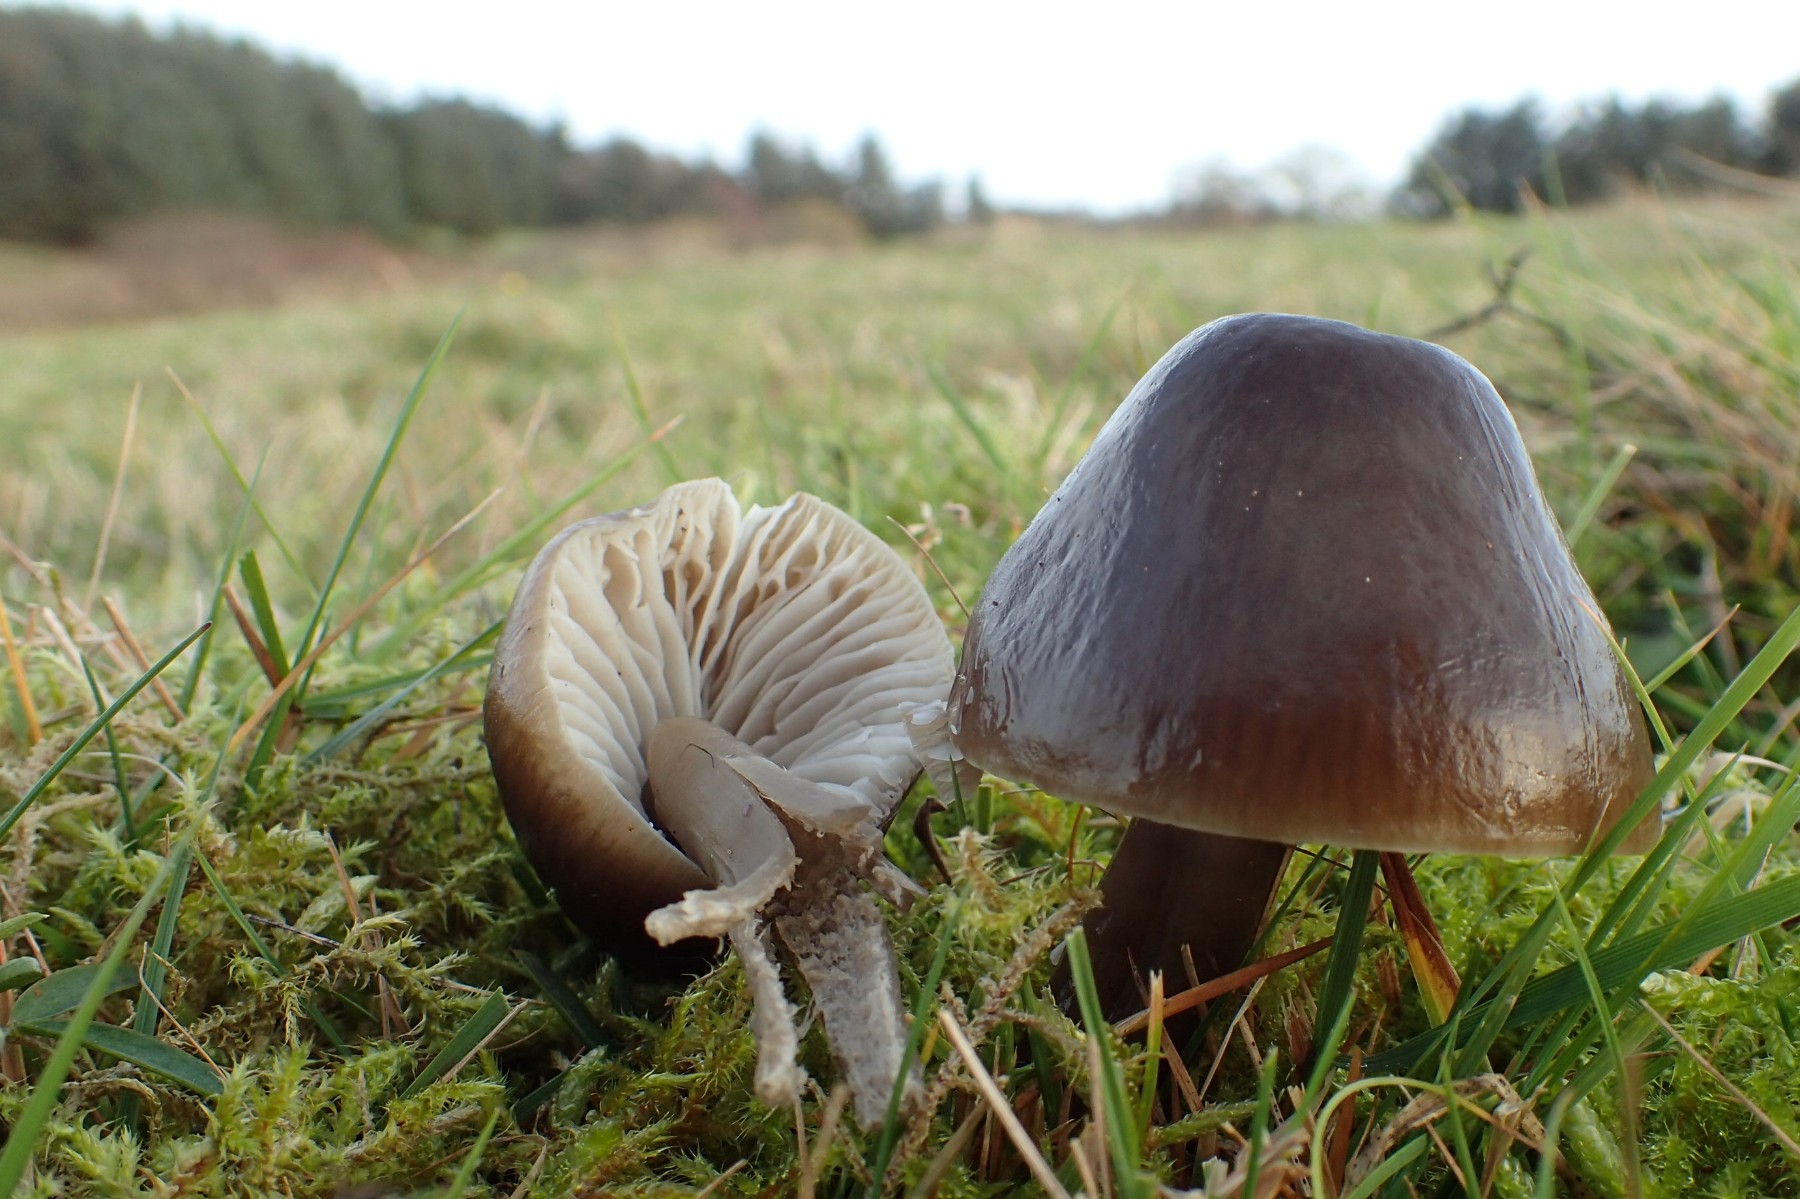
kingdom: Fungi
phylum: Basidiomycota
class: Agaricomycetes
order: Agaricales
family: Hygrophoraceae
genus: Gliophorus
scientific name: Gliophorus irrigatus
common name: slimet vokshat
